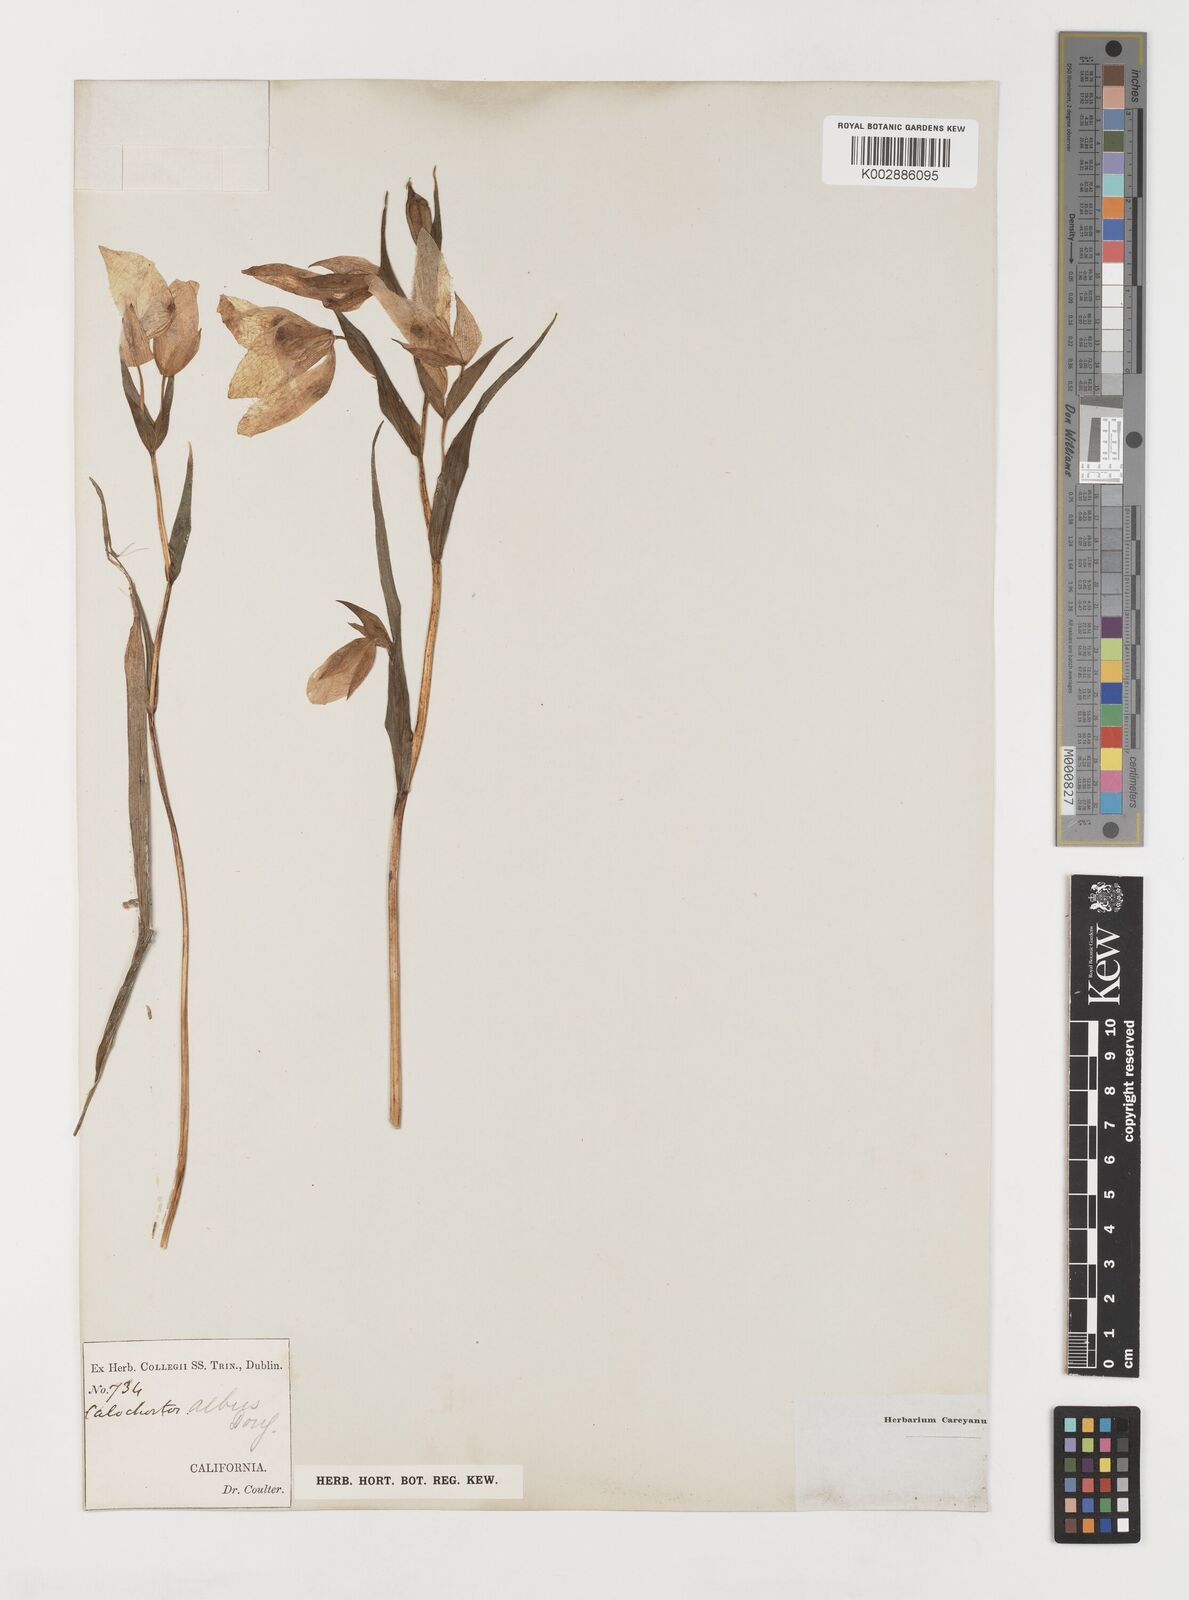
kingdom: Plantae
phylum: Tracheophyta
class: Liliopsida
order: Liliales
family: Liliaceae
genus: Calochortus
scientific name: Calochortus albus
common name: Fairy-lantern
